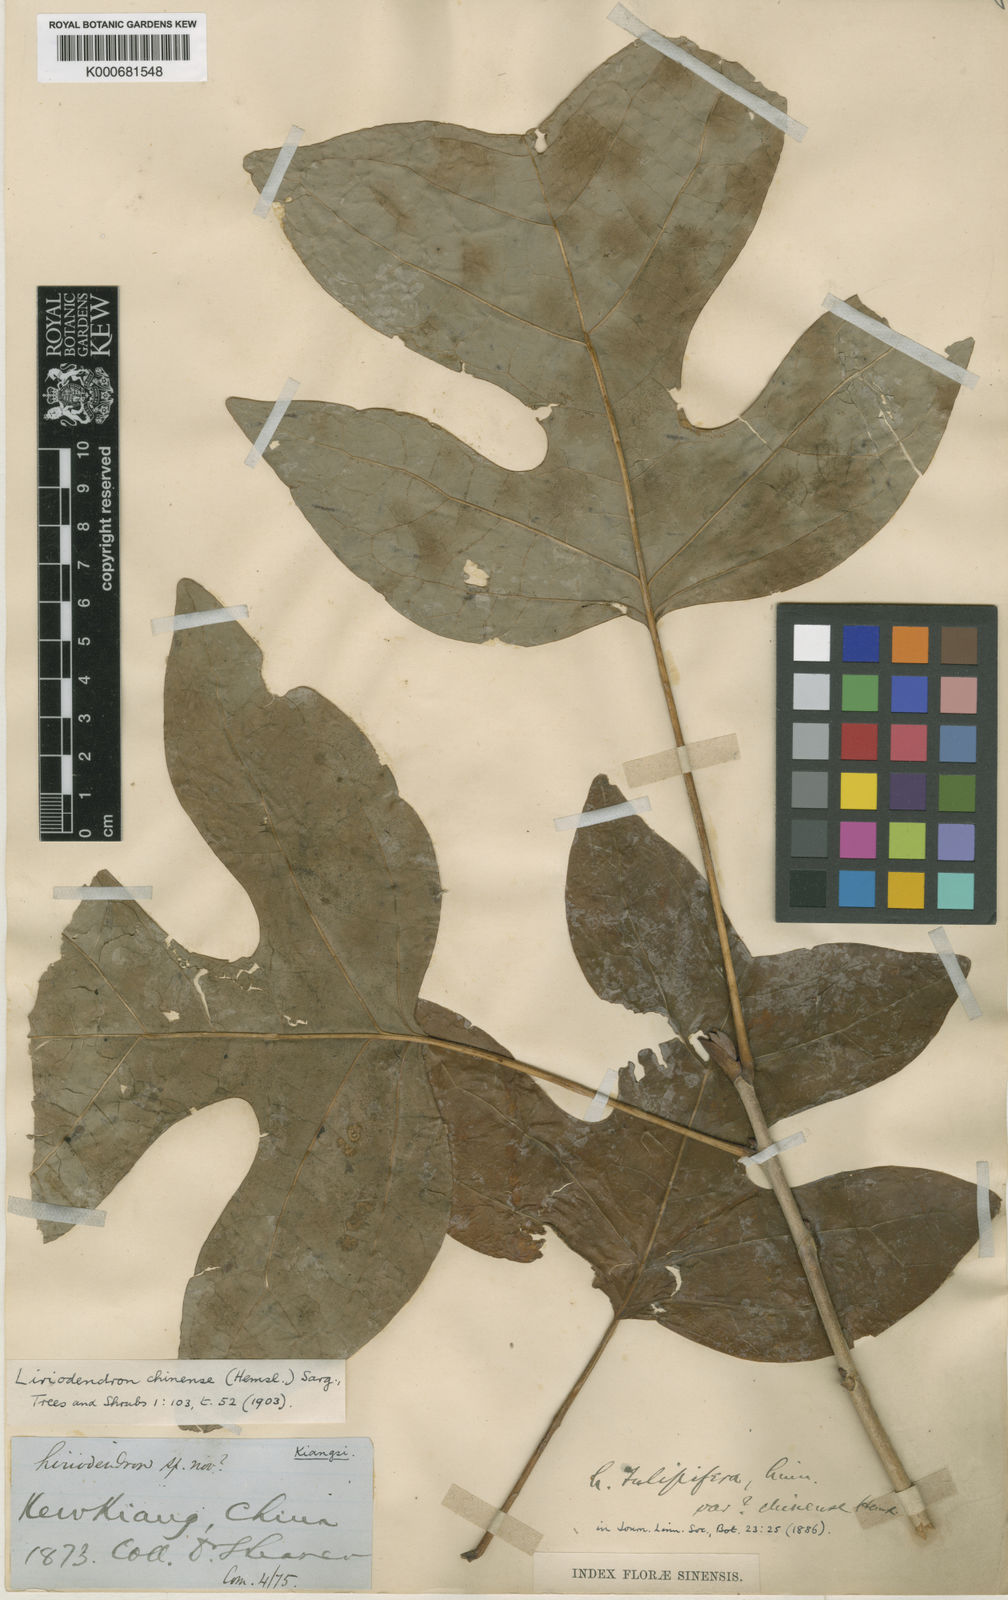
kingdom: Plantae
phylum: Tracheophyta
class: Magnoliopsida
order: Magnoliales
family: Magnoliaceae
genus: Liriodendron
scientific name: Liriodendron chinense
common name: Chinese tuliptree
